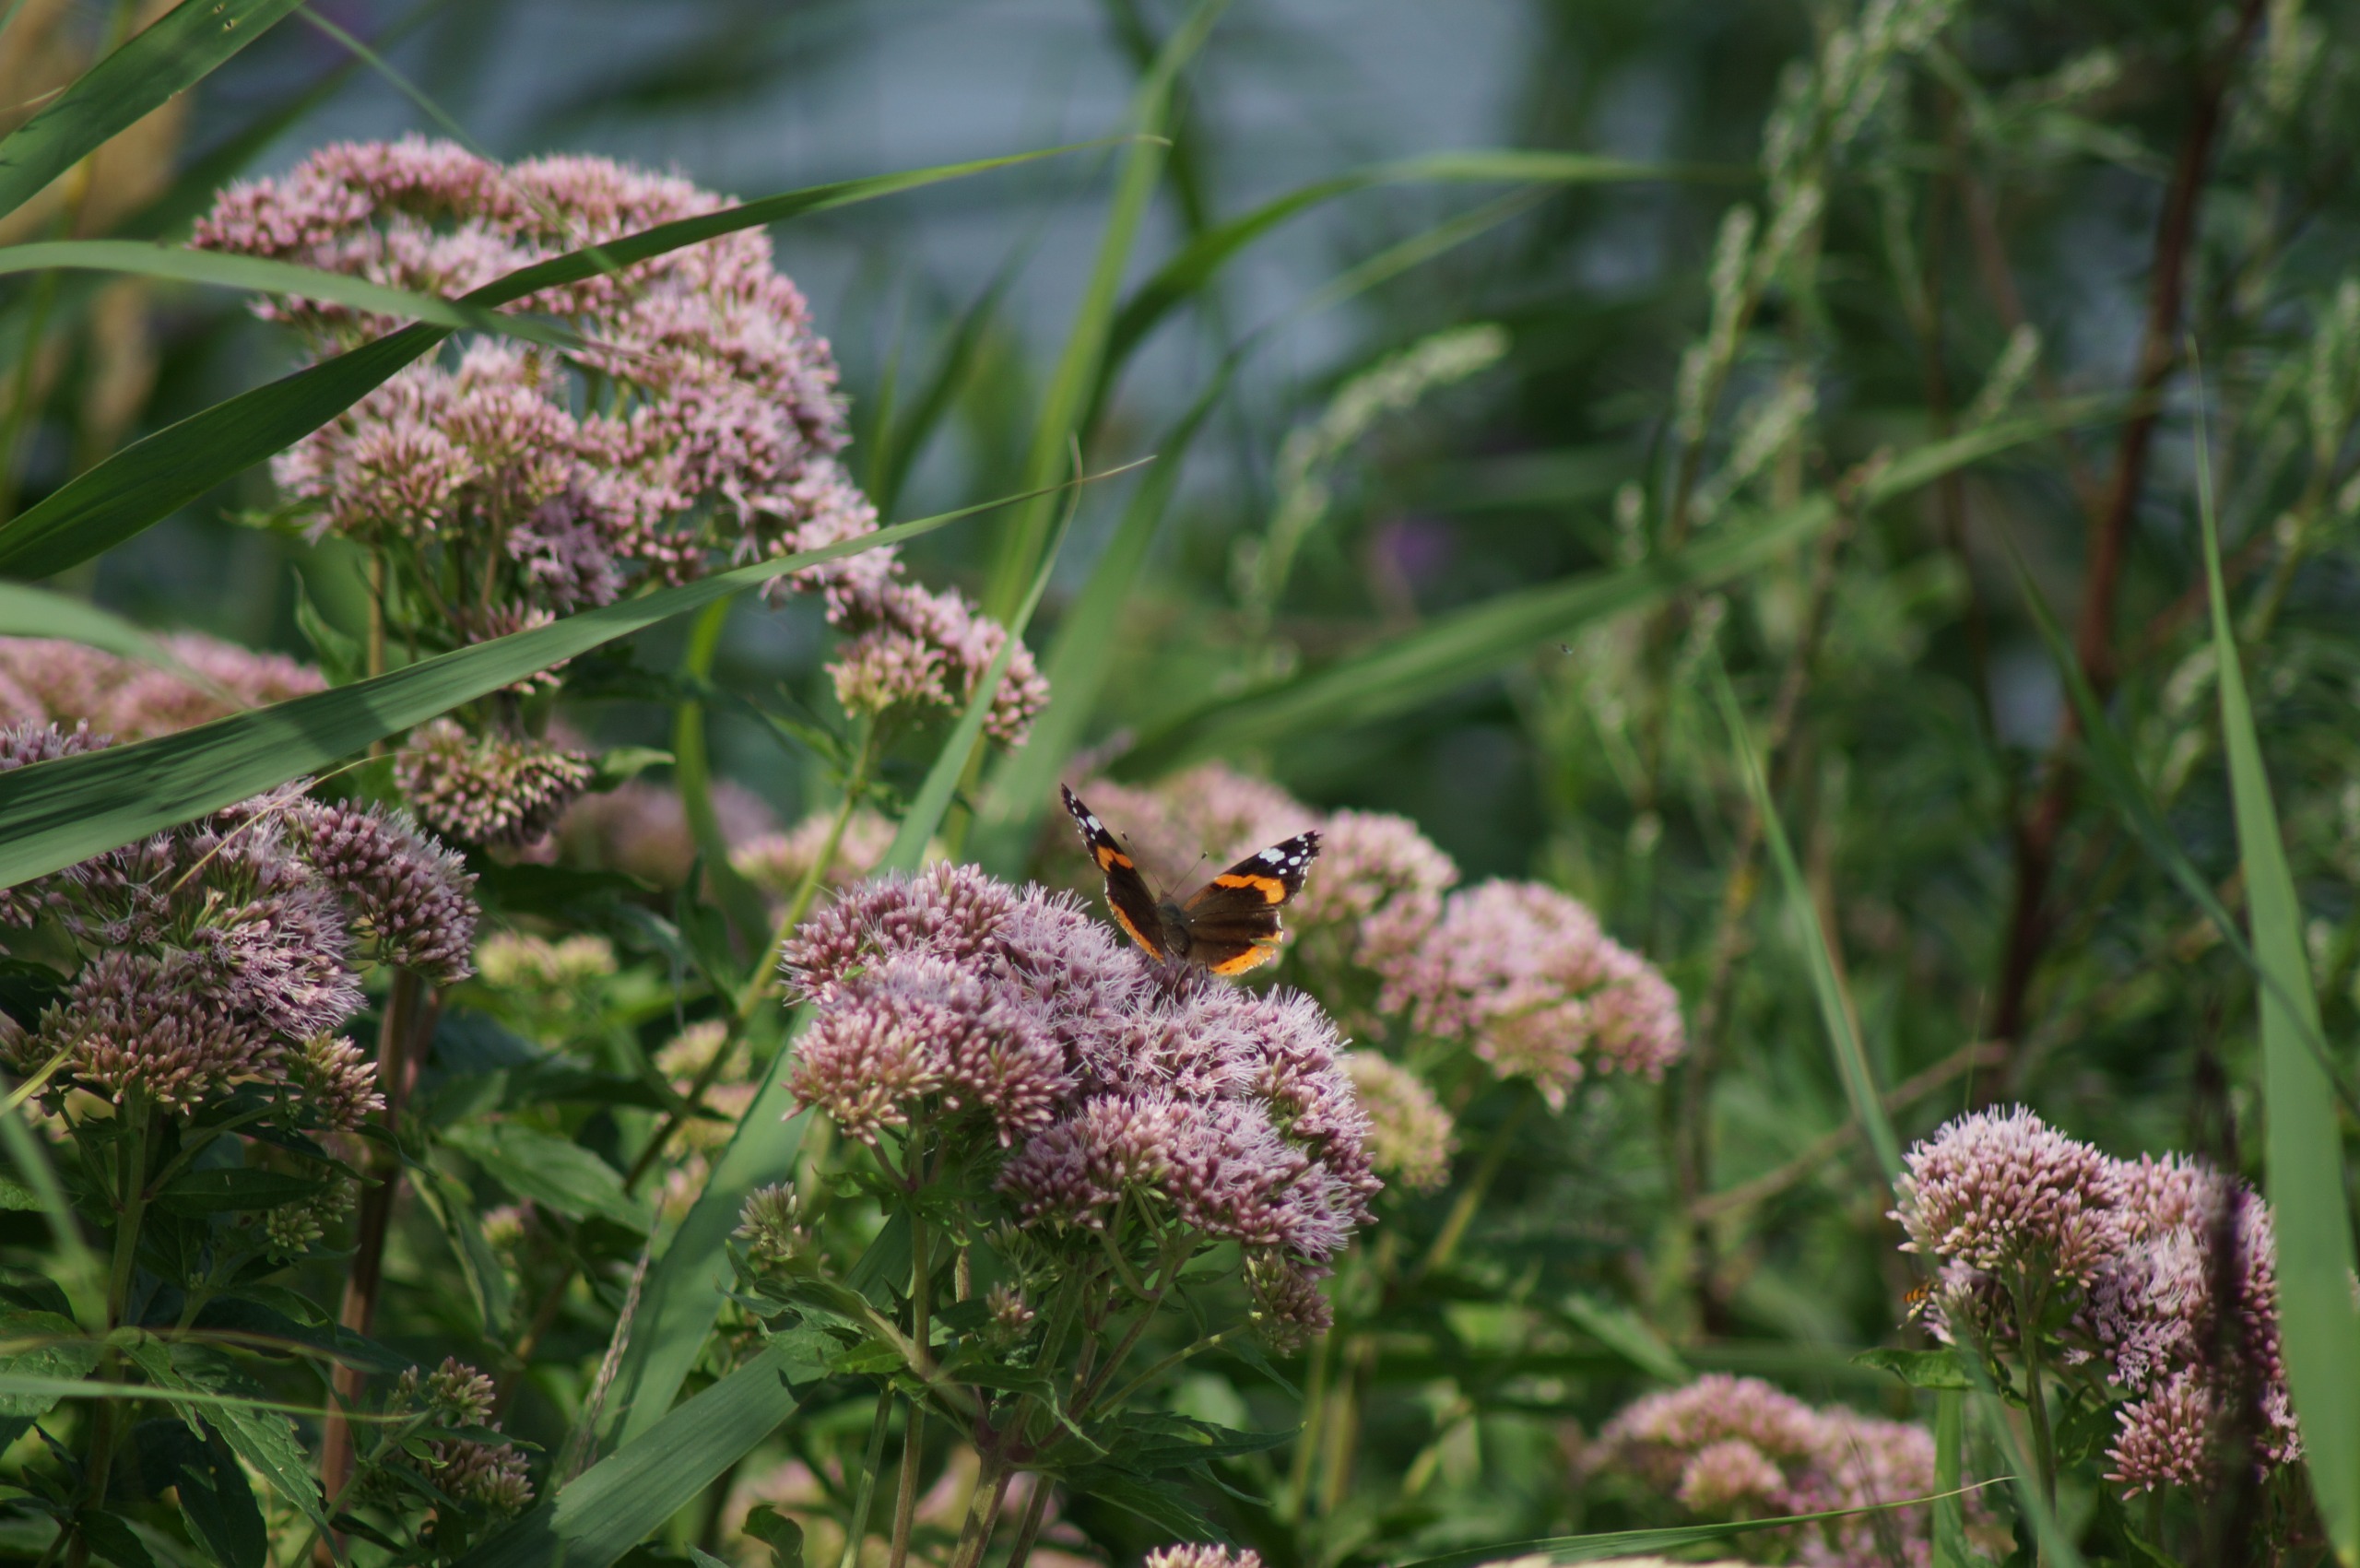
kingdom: Animalia
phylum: Arthropoda
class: Insecta
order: Lepidoptera
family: Nymphalidae
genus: Vanessa
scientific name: Vanessa atalanta
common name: Admiral
